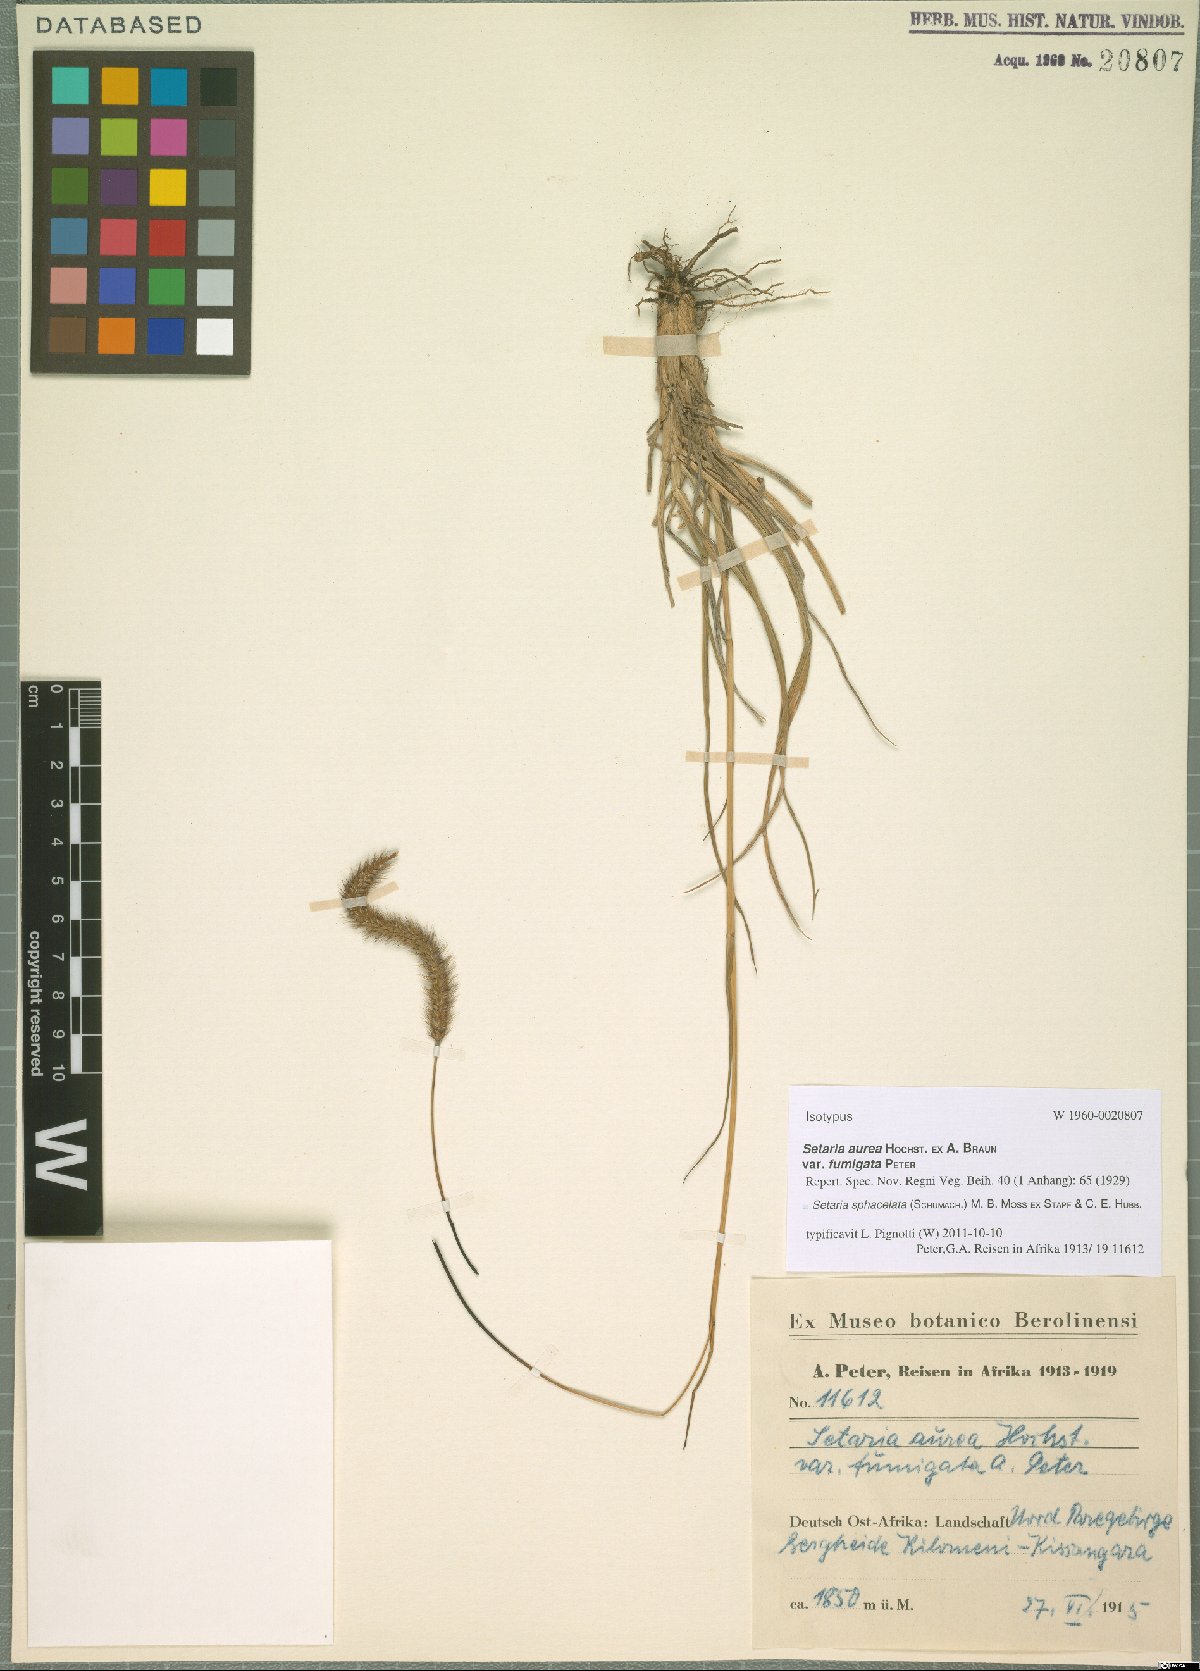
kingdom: Plantae
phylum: Tracheophyta
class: Liliopsida
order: Poales
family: Poaceae
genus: Setaria
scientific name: Setaria sphacelata
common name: African bristlegrass
